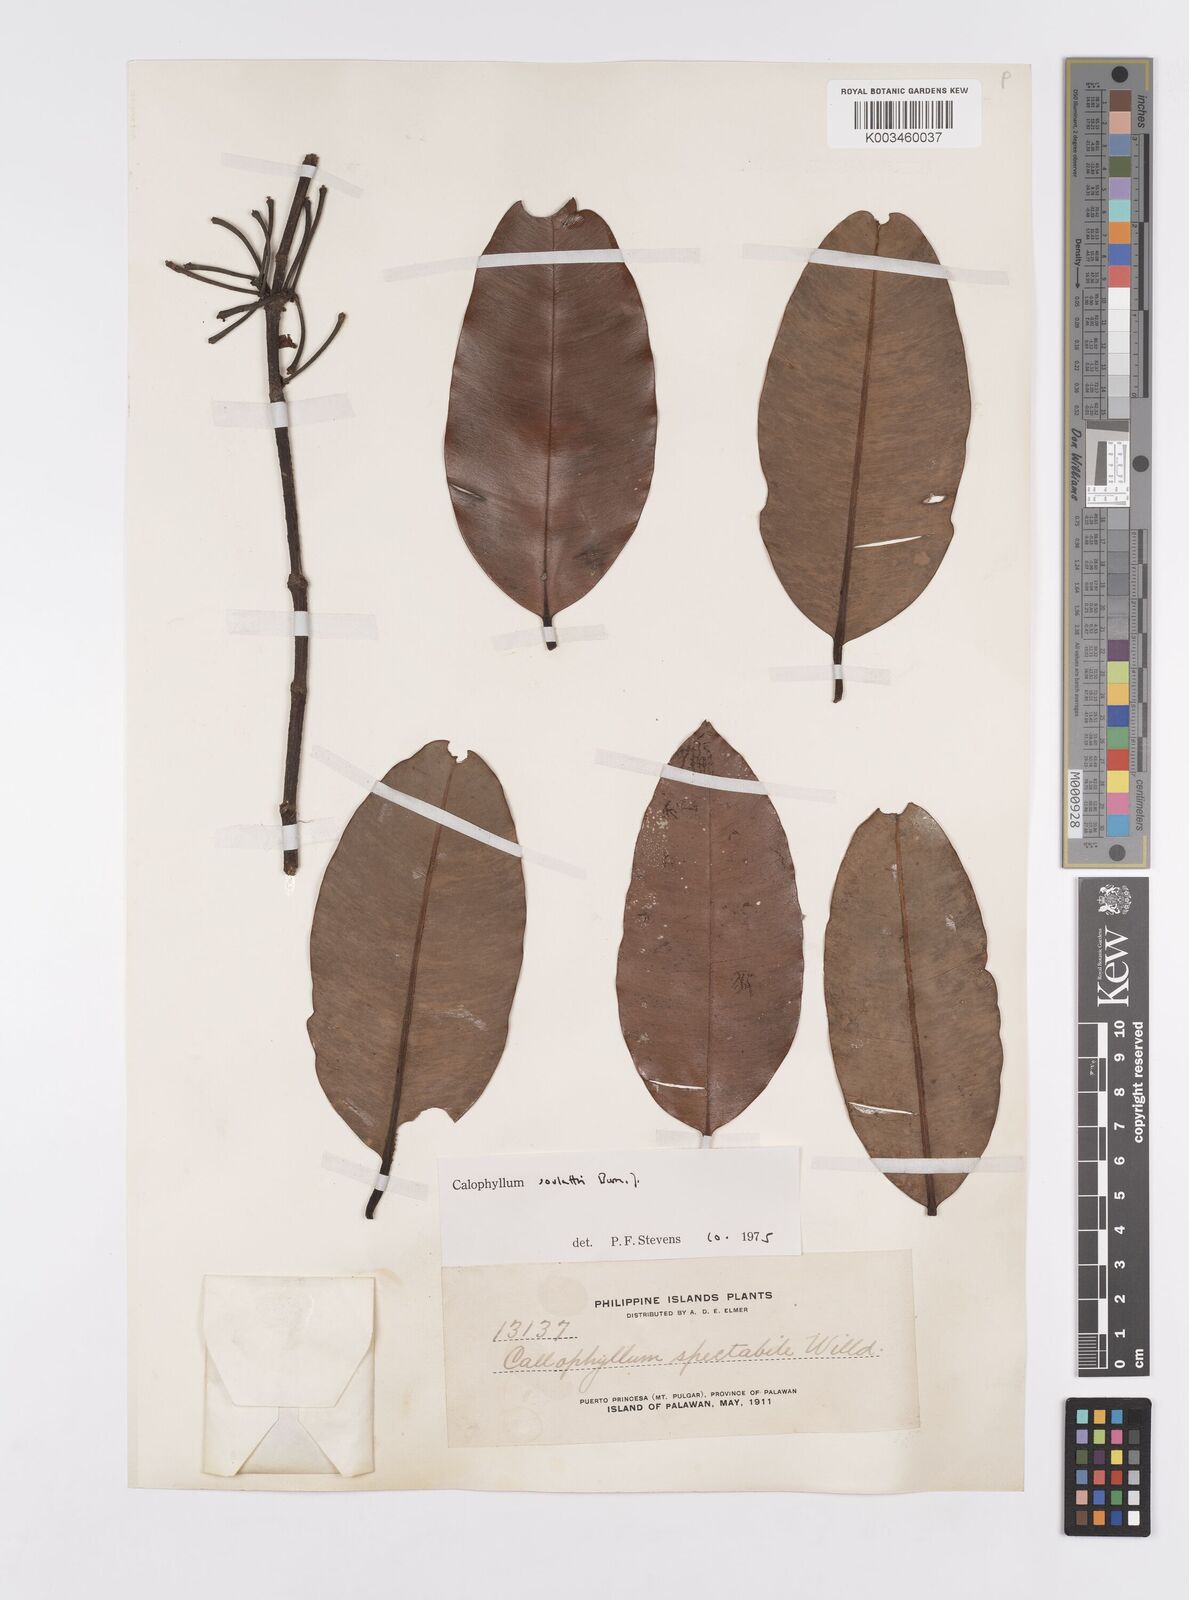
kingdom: Plantae
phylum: Tracheophyta
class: Magnoliopsida
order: Malpighiales
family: Calophyllaceae
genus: Calophyllum
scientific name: Calophyllum soulattri
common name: Bitangoor boonot
